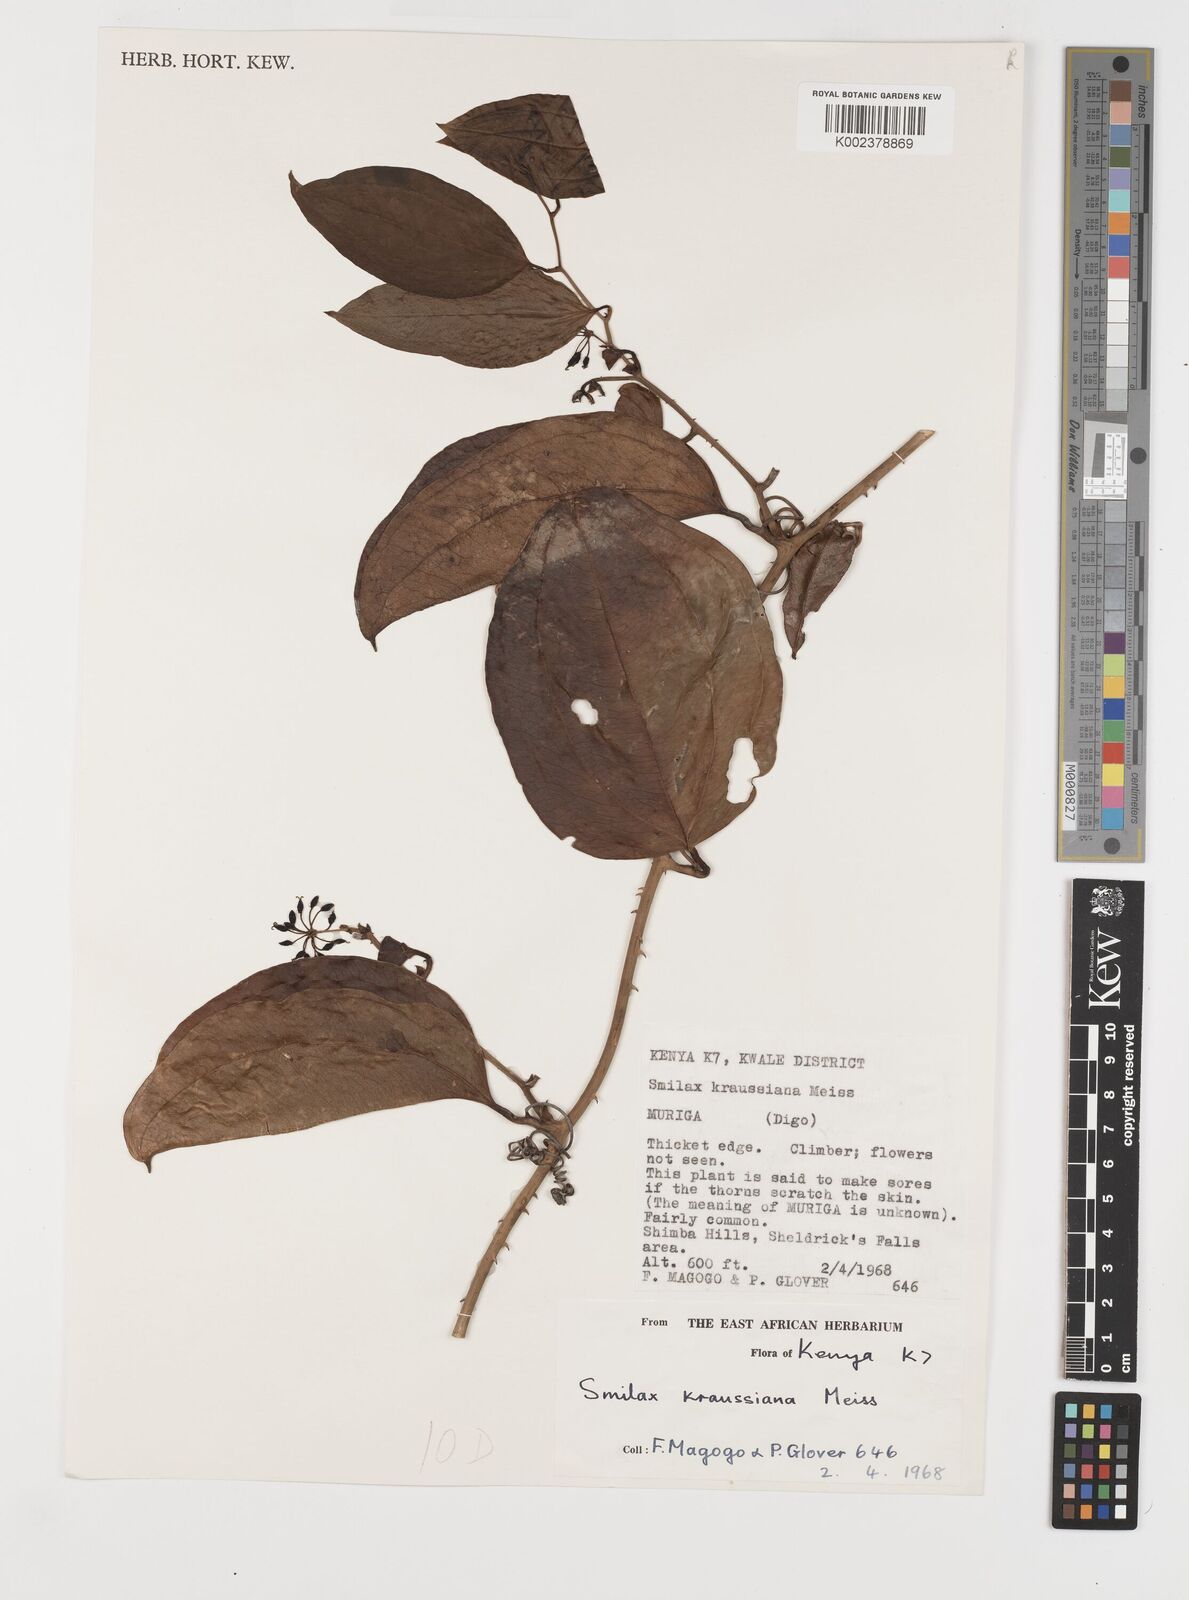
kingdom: Plantae
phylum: Tracheophyta
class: Liliopsida
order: Liliales
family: Smilacaceae
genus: Smilax
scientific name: Smilax anceps
